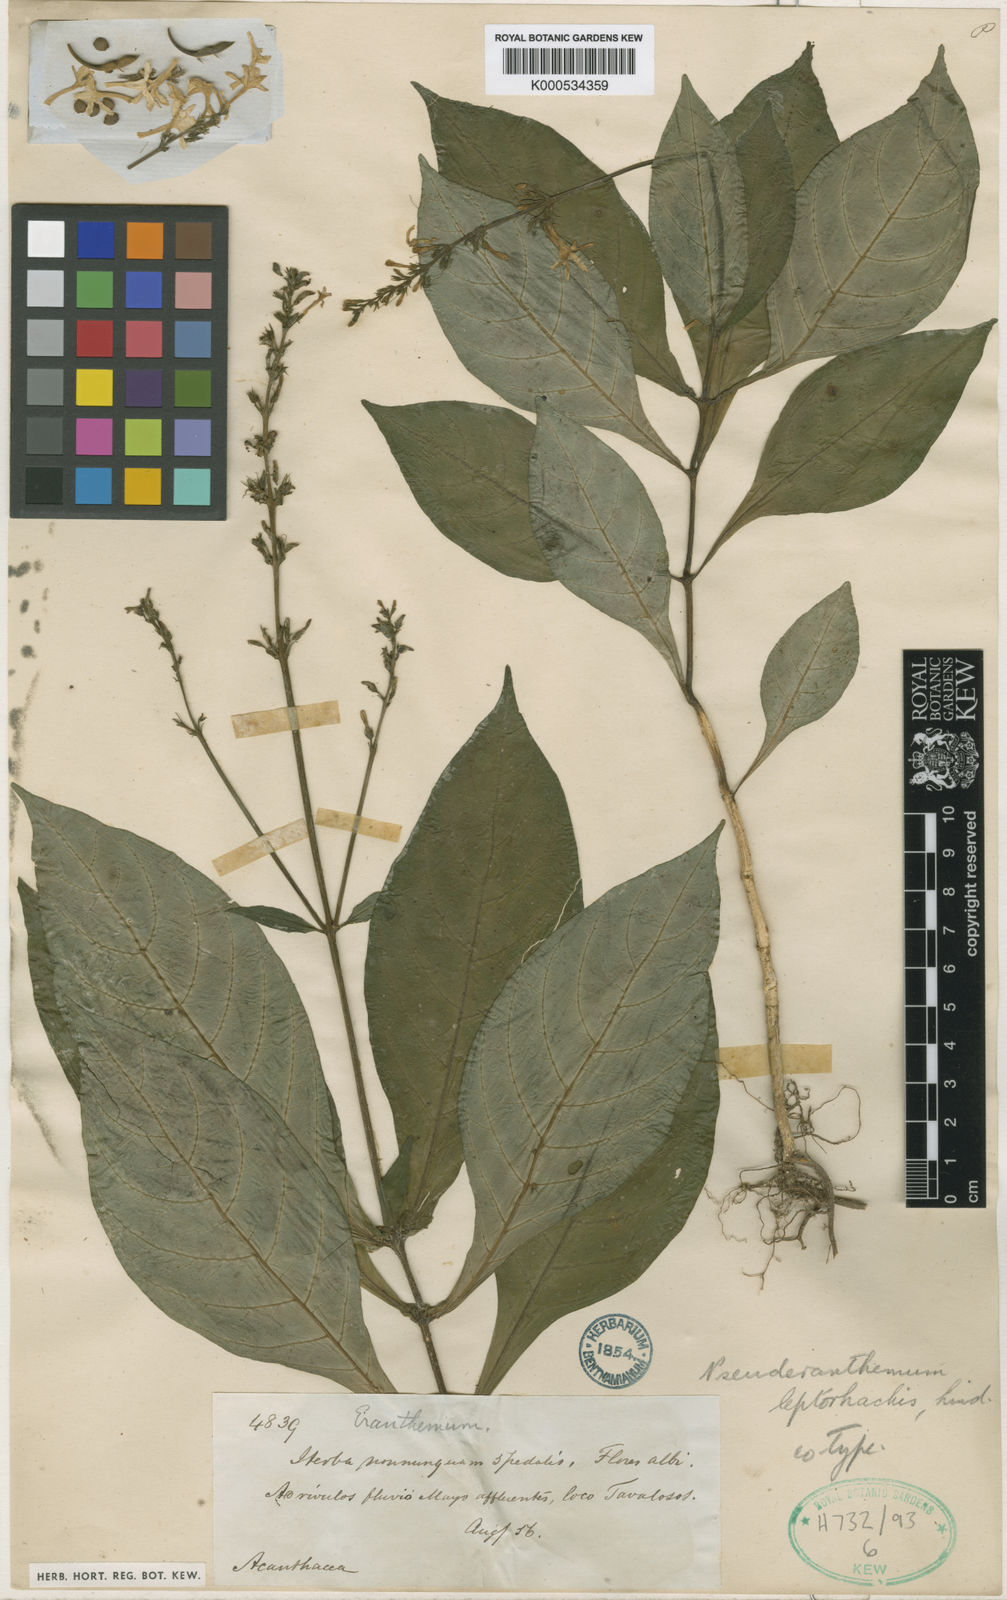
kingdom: Plantae
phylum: Tracheophyta
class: Magnoliopsida
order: Lamiales
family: Acanthaceae
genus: Pseuderanthemum
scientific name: Pseuderanthemum leptorhachis
